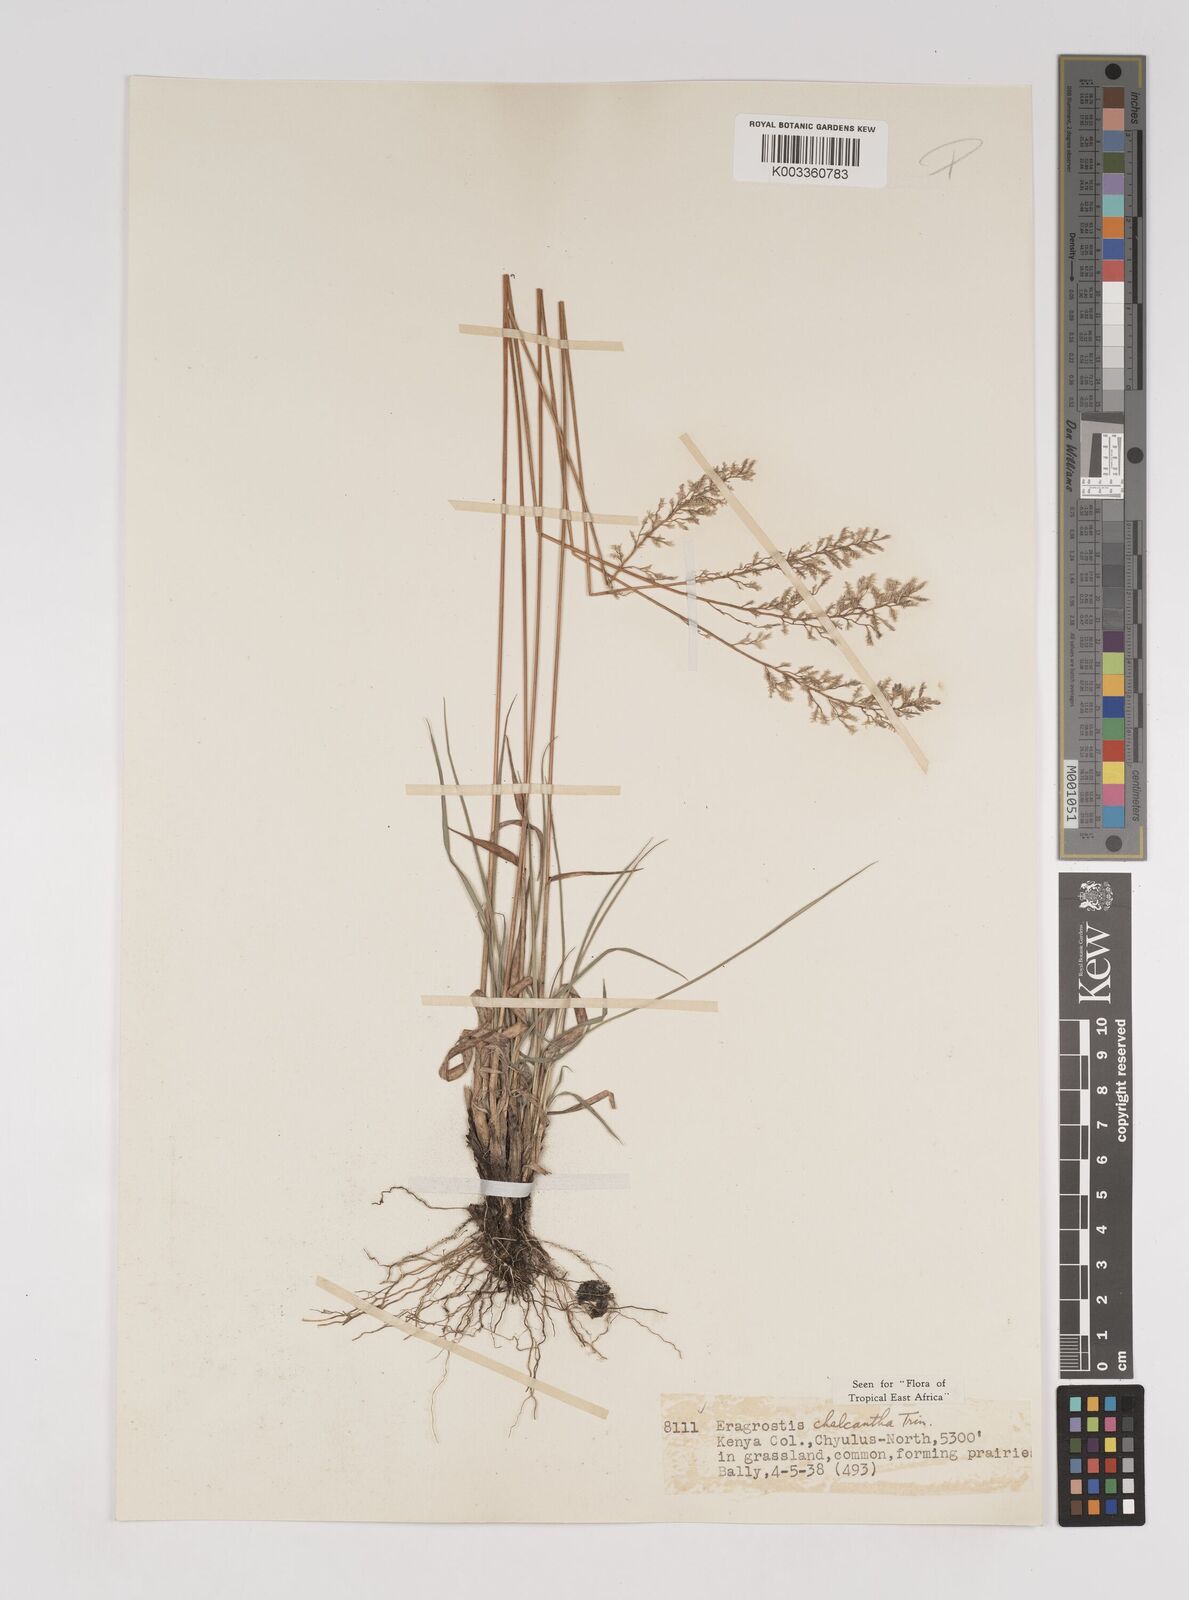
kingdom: Plantae
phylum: Tracheophyta
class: Liliopsida
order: Poales
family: Poaceae
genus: Eragrostis
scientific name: Eragrostis racemosa
